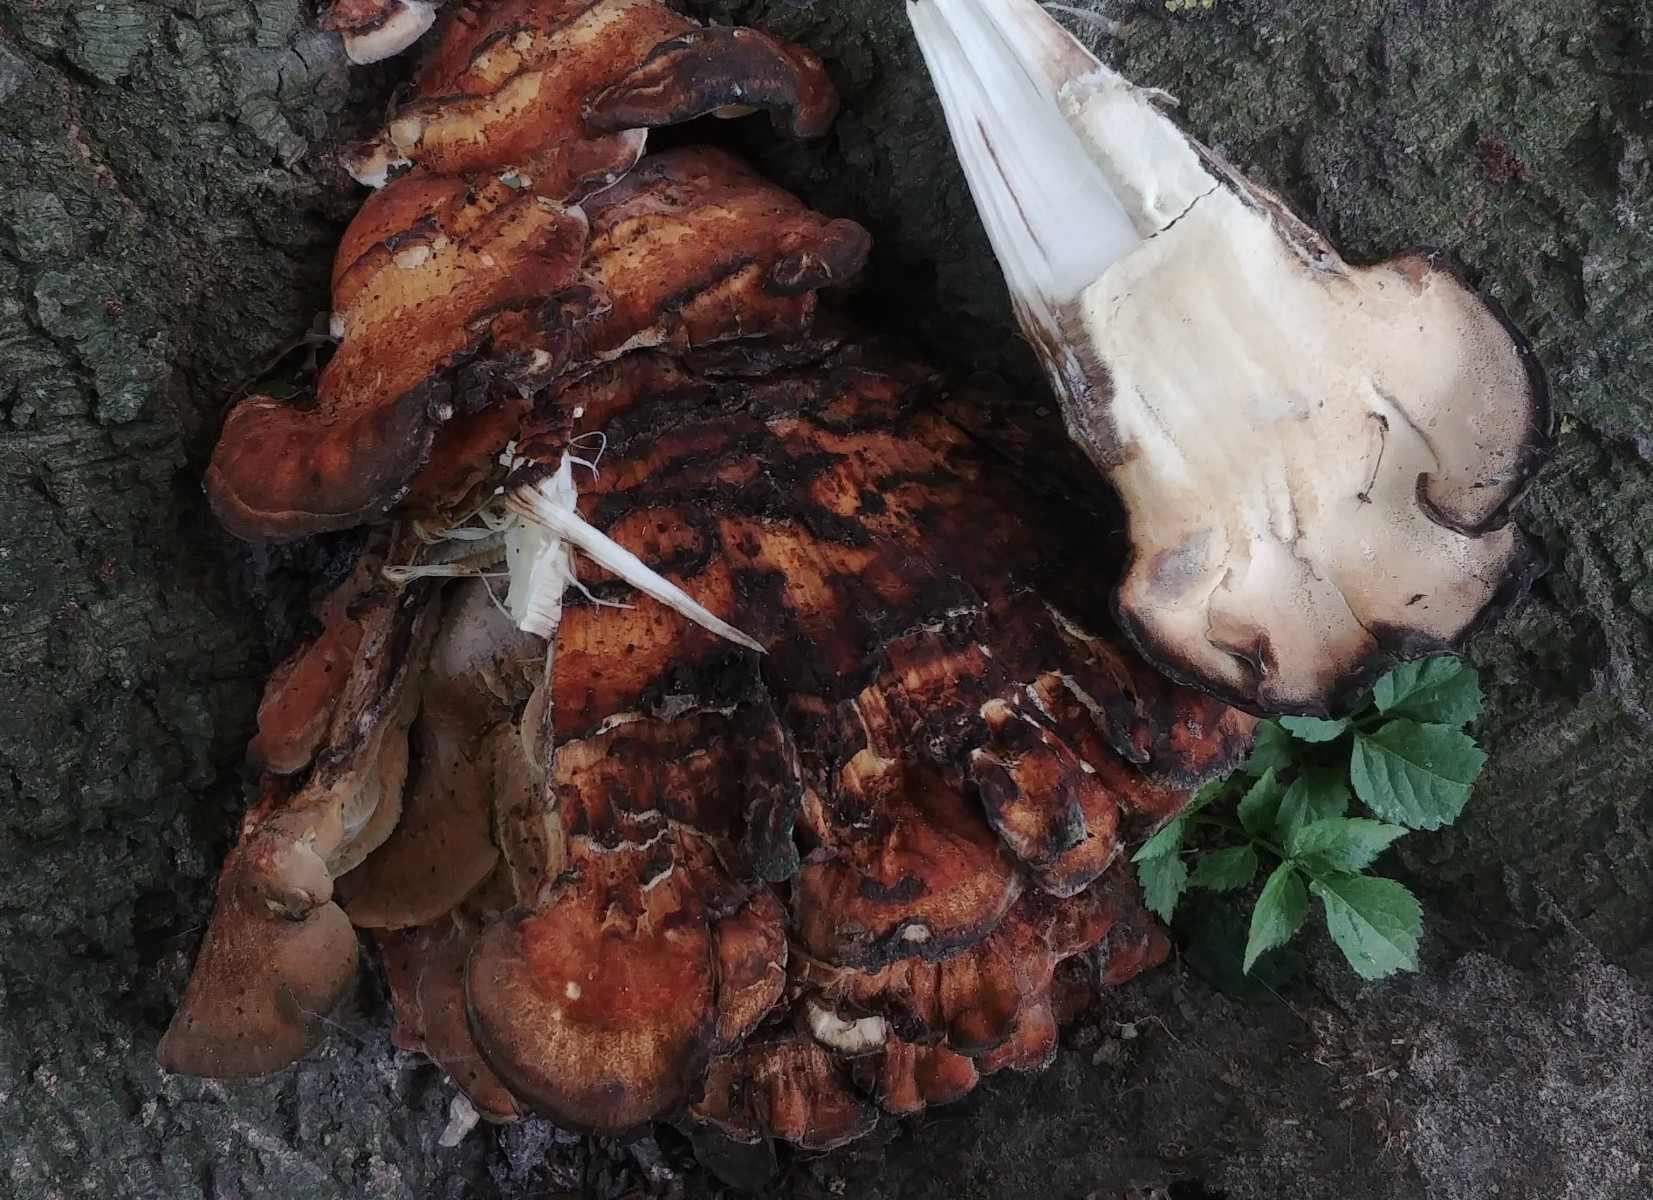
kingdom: Fungi
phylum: Basidiomycota
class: Agaricomycetes
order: Polyporales
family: Meripilaceae
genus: Meripilus
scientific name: Meripilus giganteus
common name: kæmpeporesvamp
